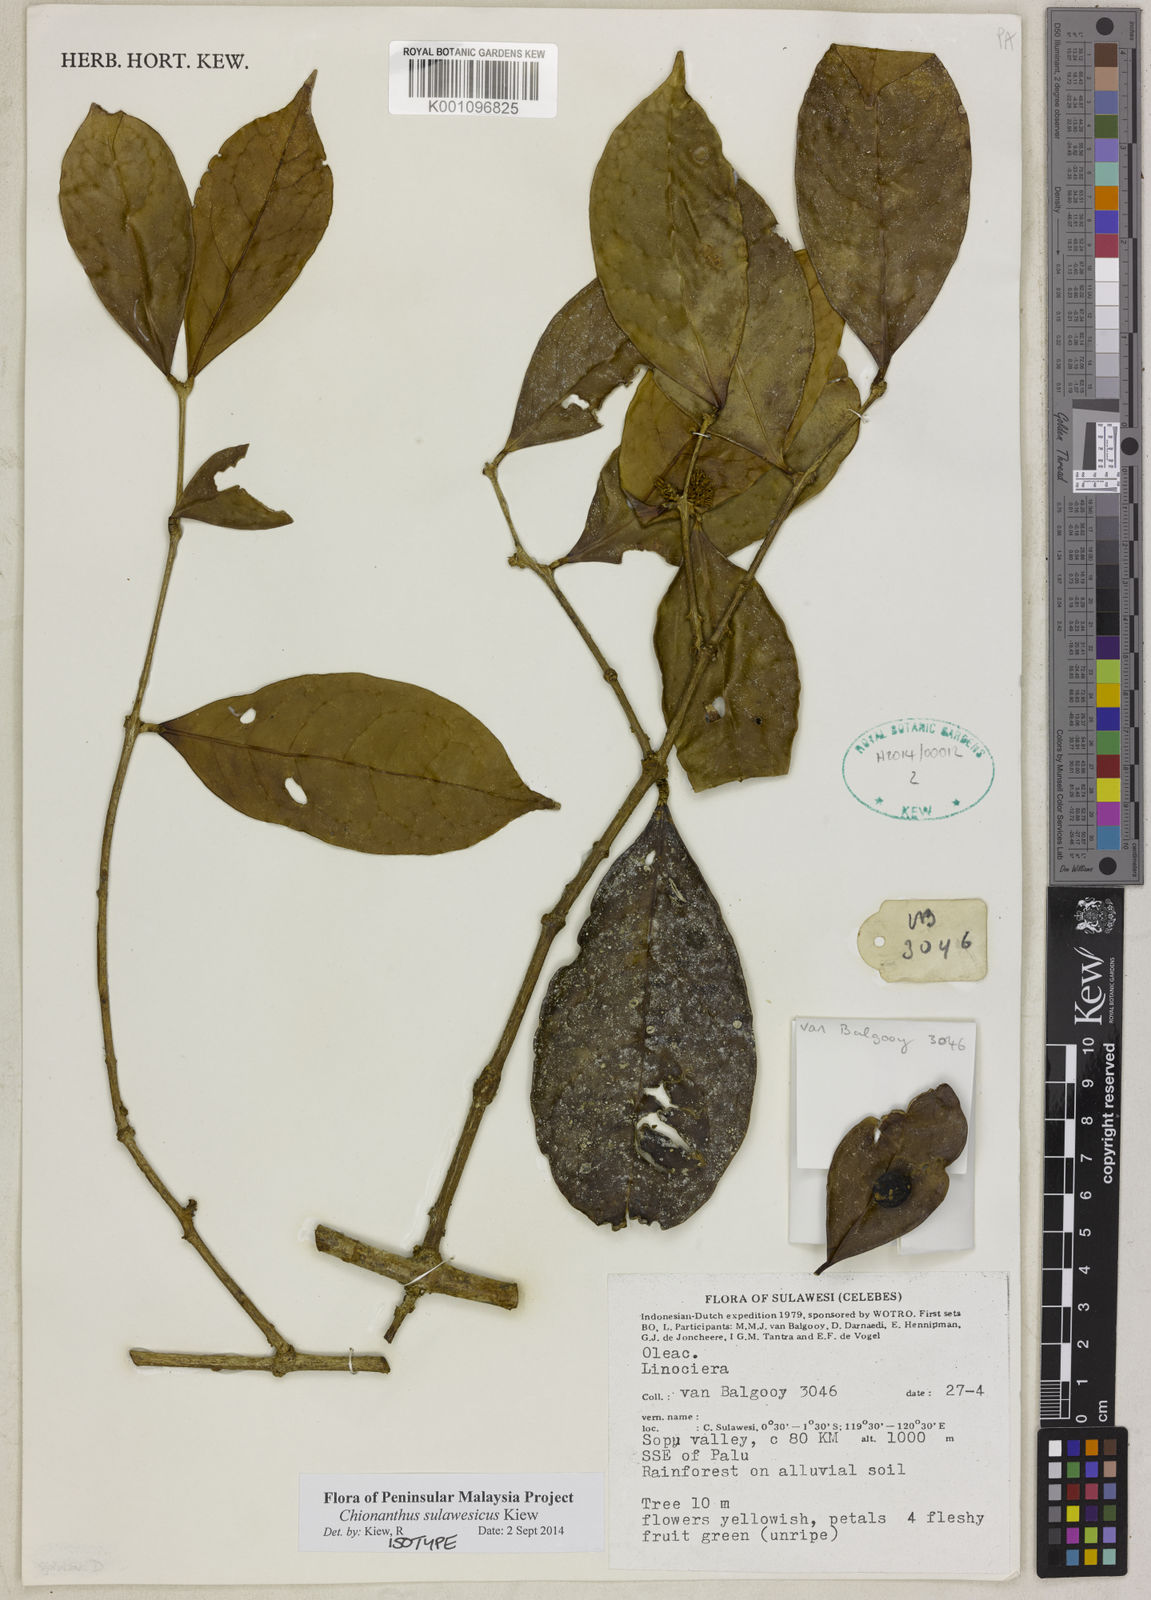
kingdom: Plantae
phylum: Tracheophyta
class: Magnoliopsida
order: Lamiales
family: Oleaceae
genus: Chionanthus
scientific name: Chionanthus sulawesicus
